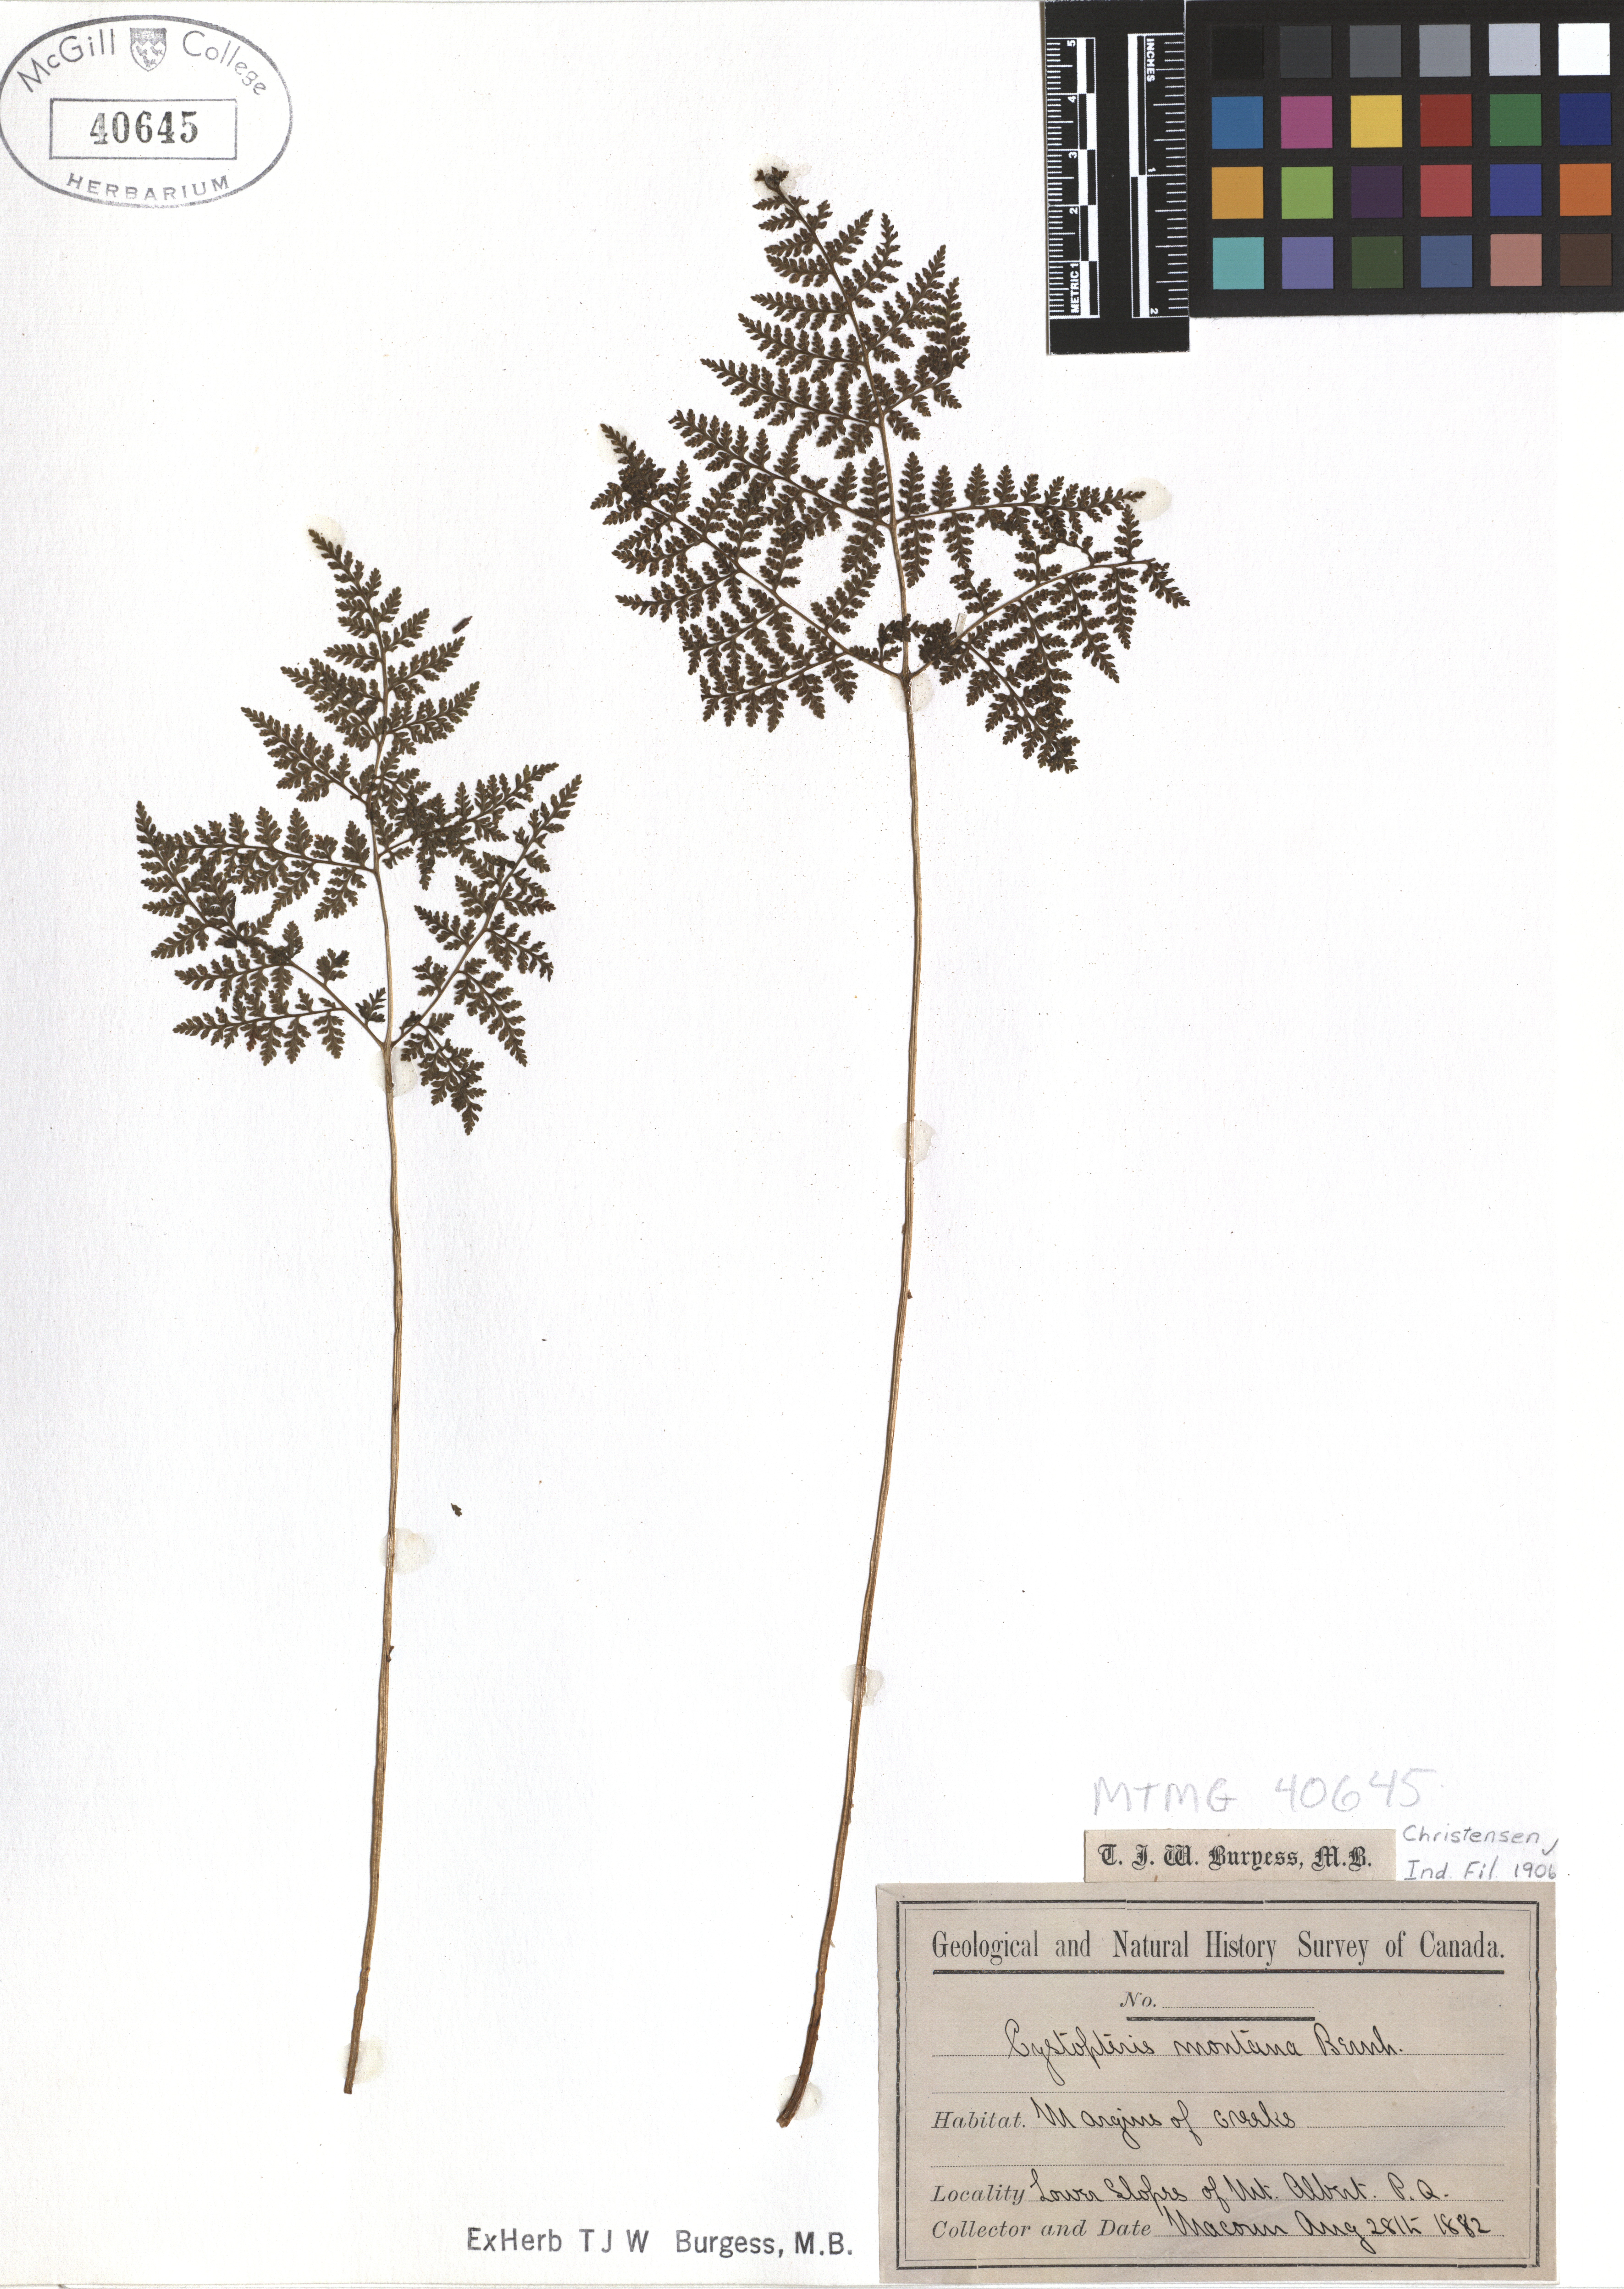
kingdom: Plantae
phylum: Tracheophyta
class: Polypodiopsida
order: Polypodiales
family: Cystopteridaceae
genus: Cystopteris
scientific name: Cystopteris montana
